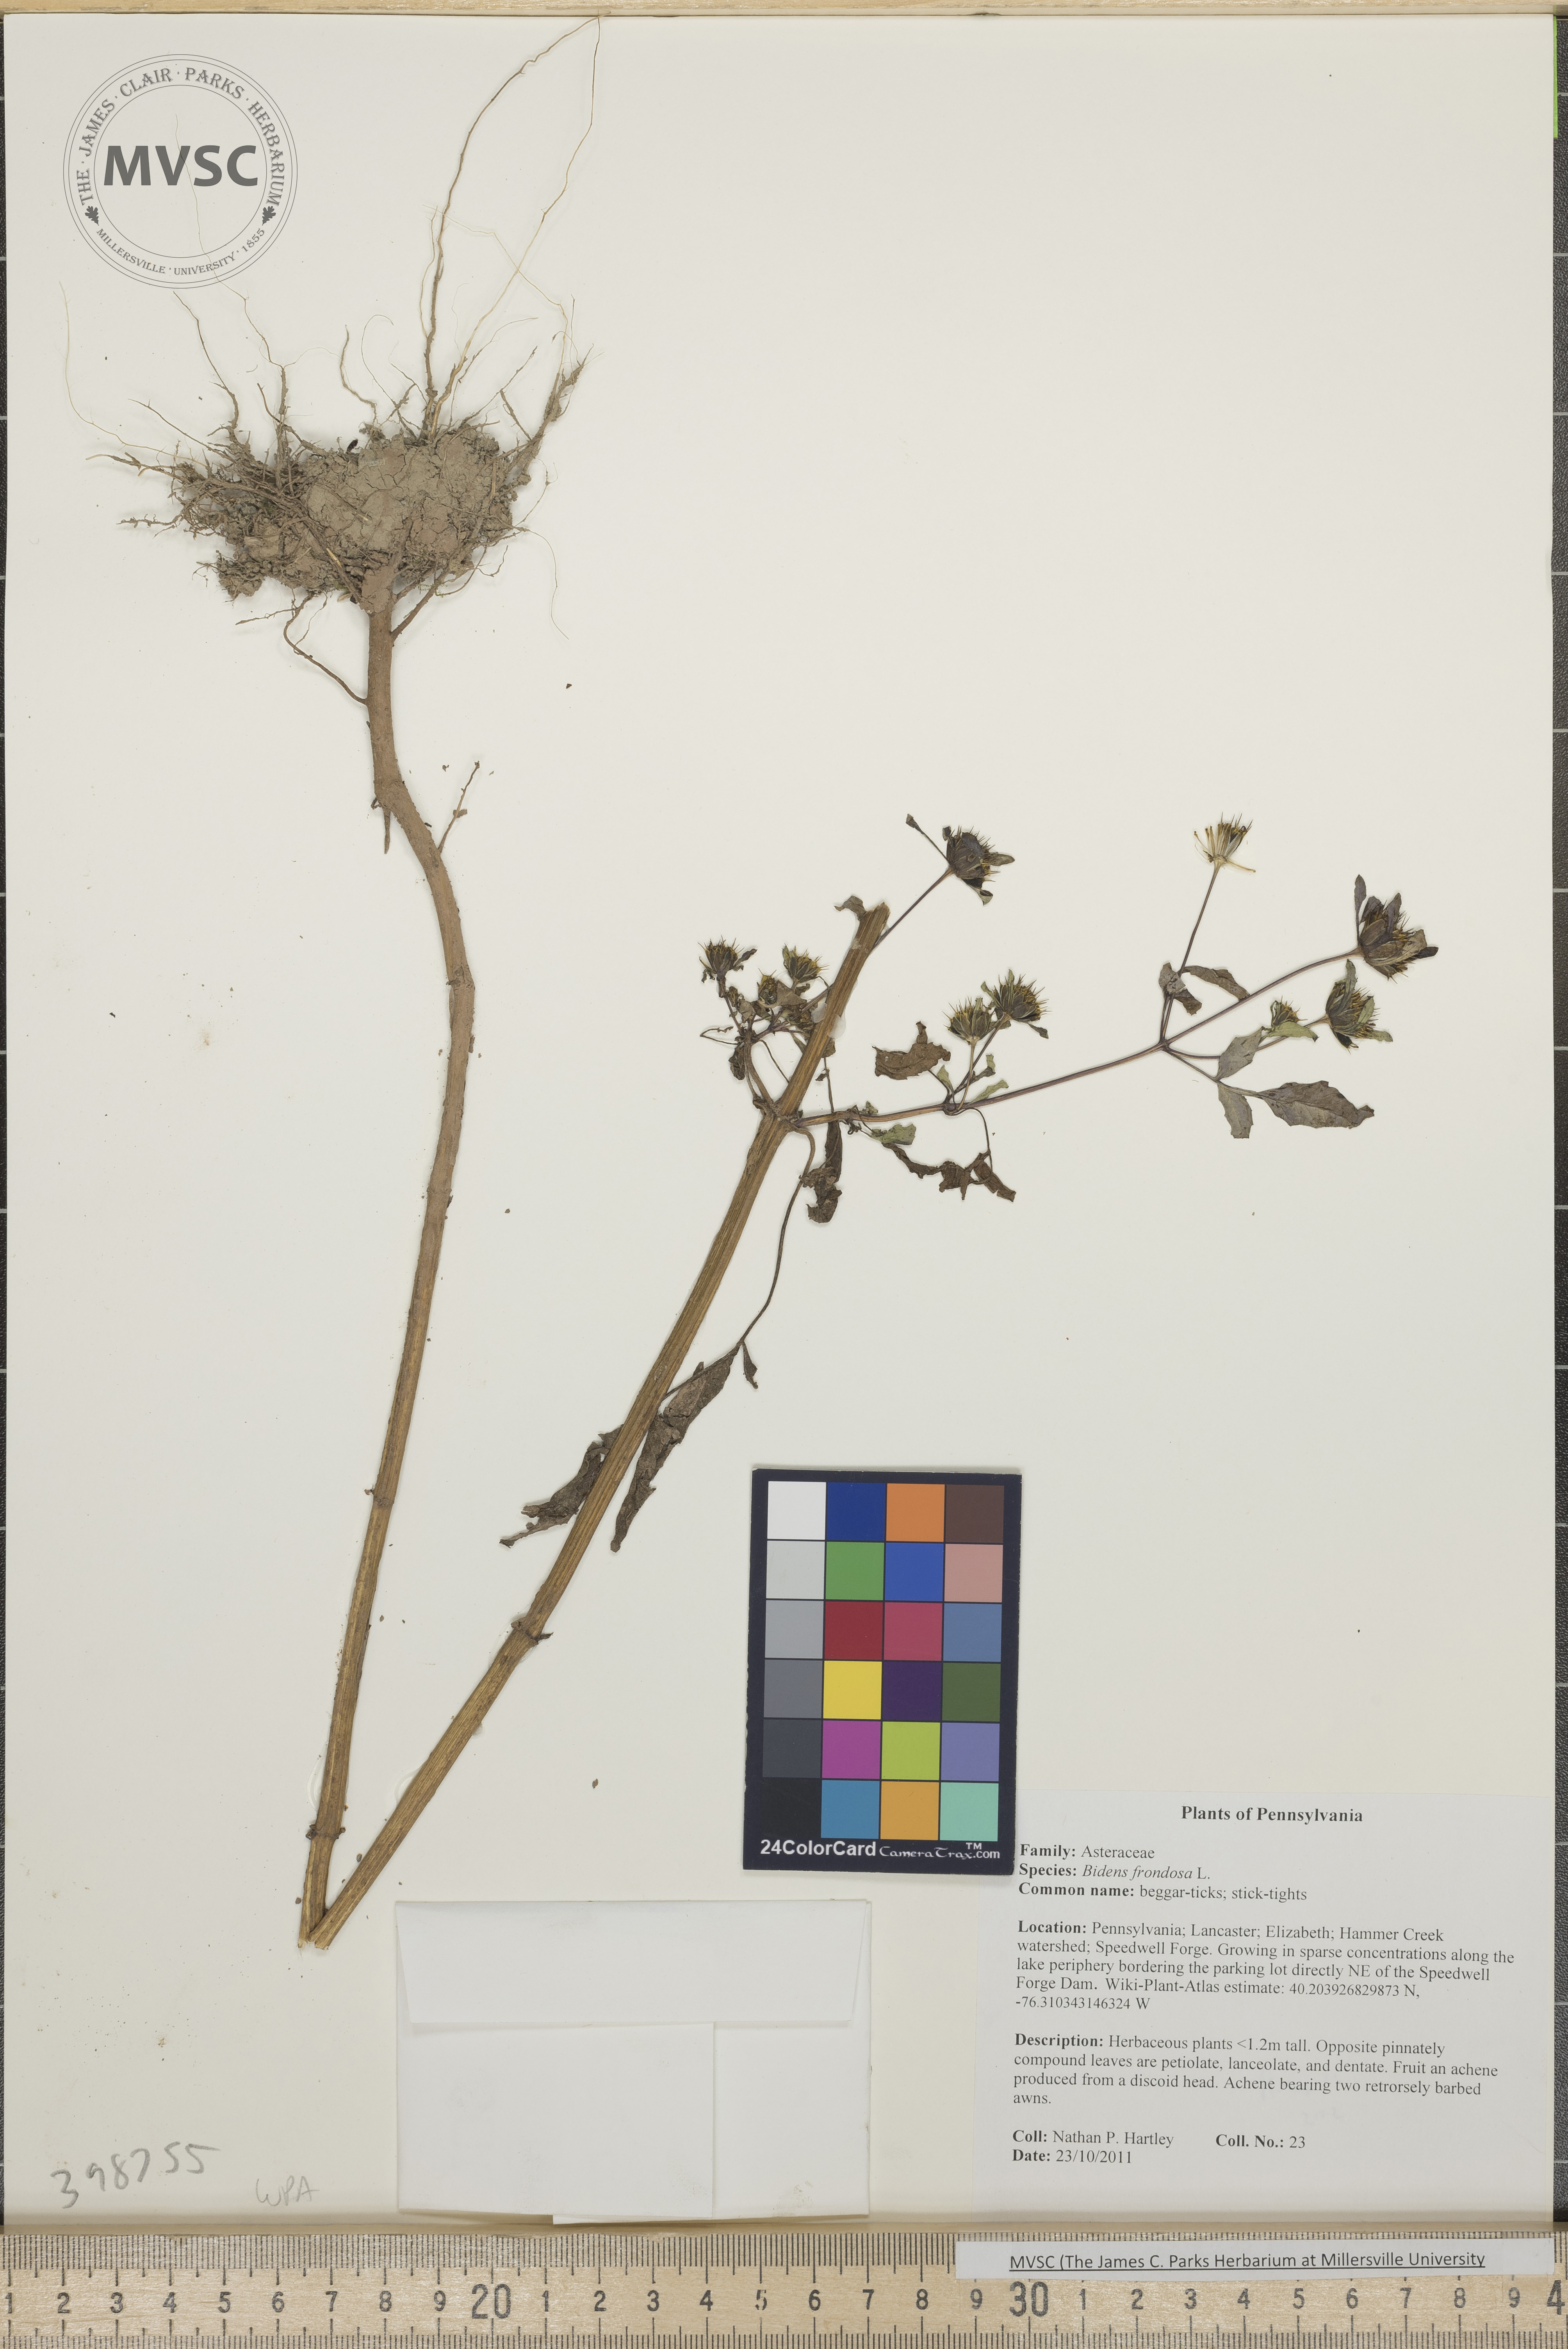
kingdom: Plantae
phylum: Tracheophyta
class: Magnoliopsida
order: Asterales
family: Asteraceae
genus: Bidens
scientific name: Bidens frondosa
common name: Beggar-ticks
